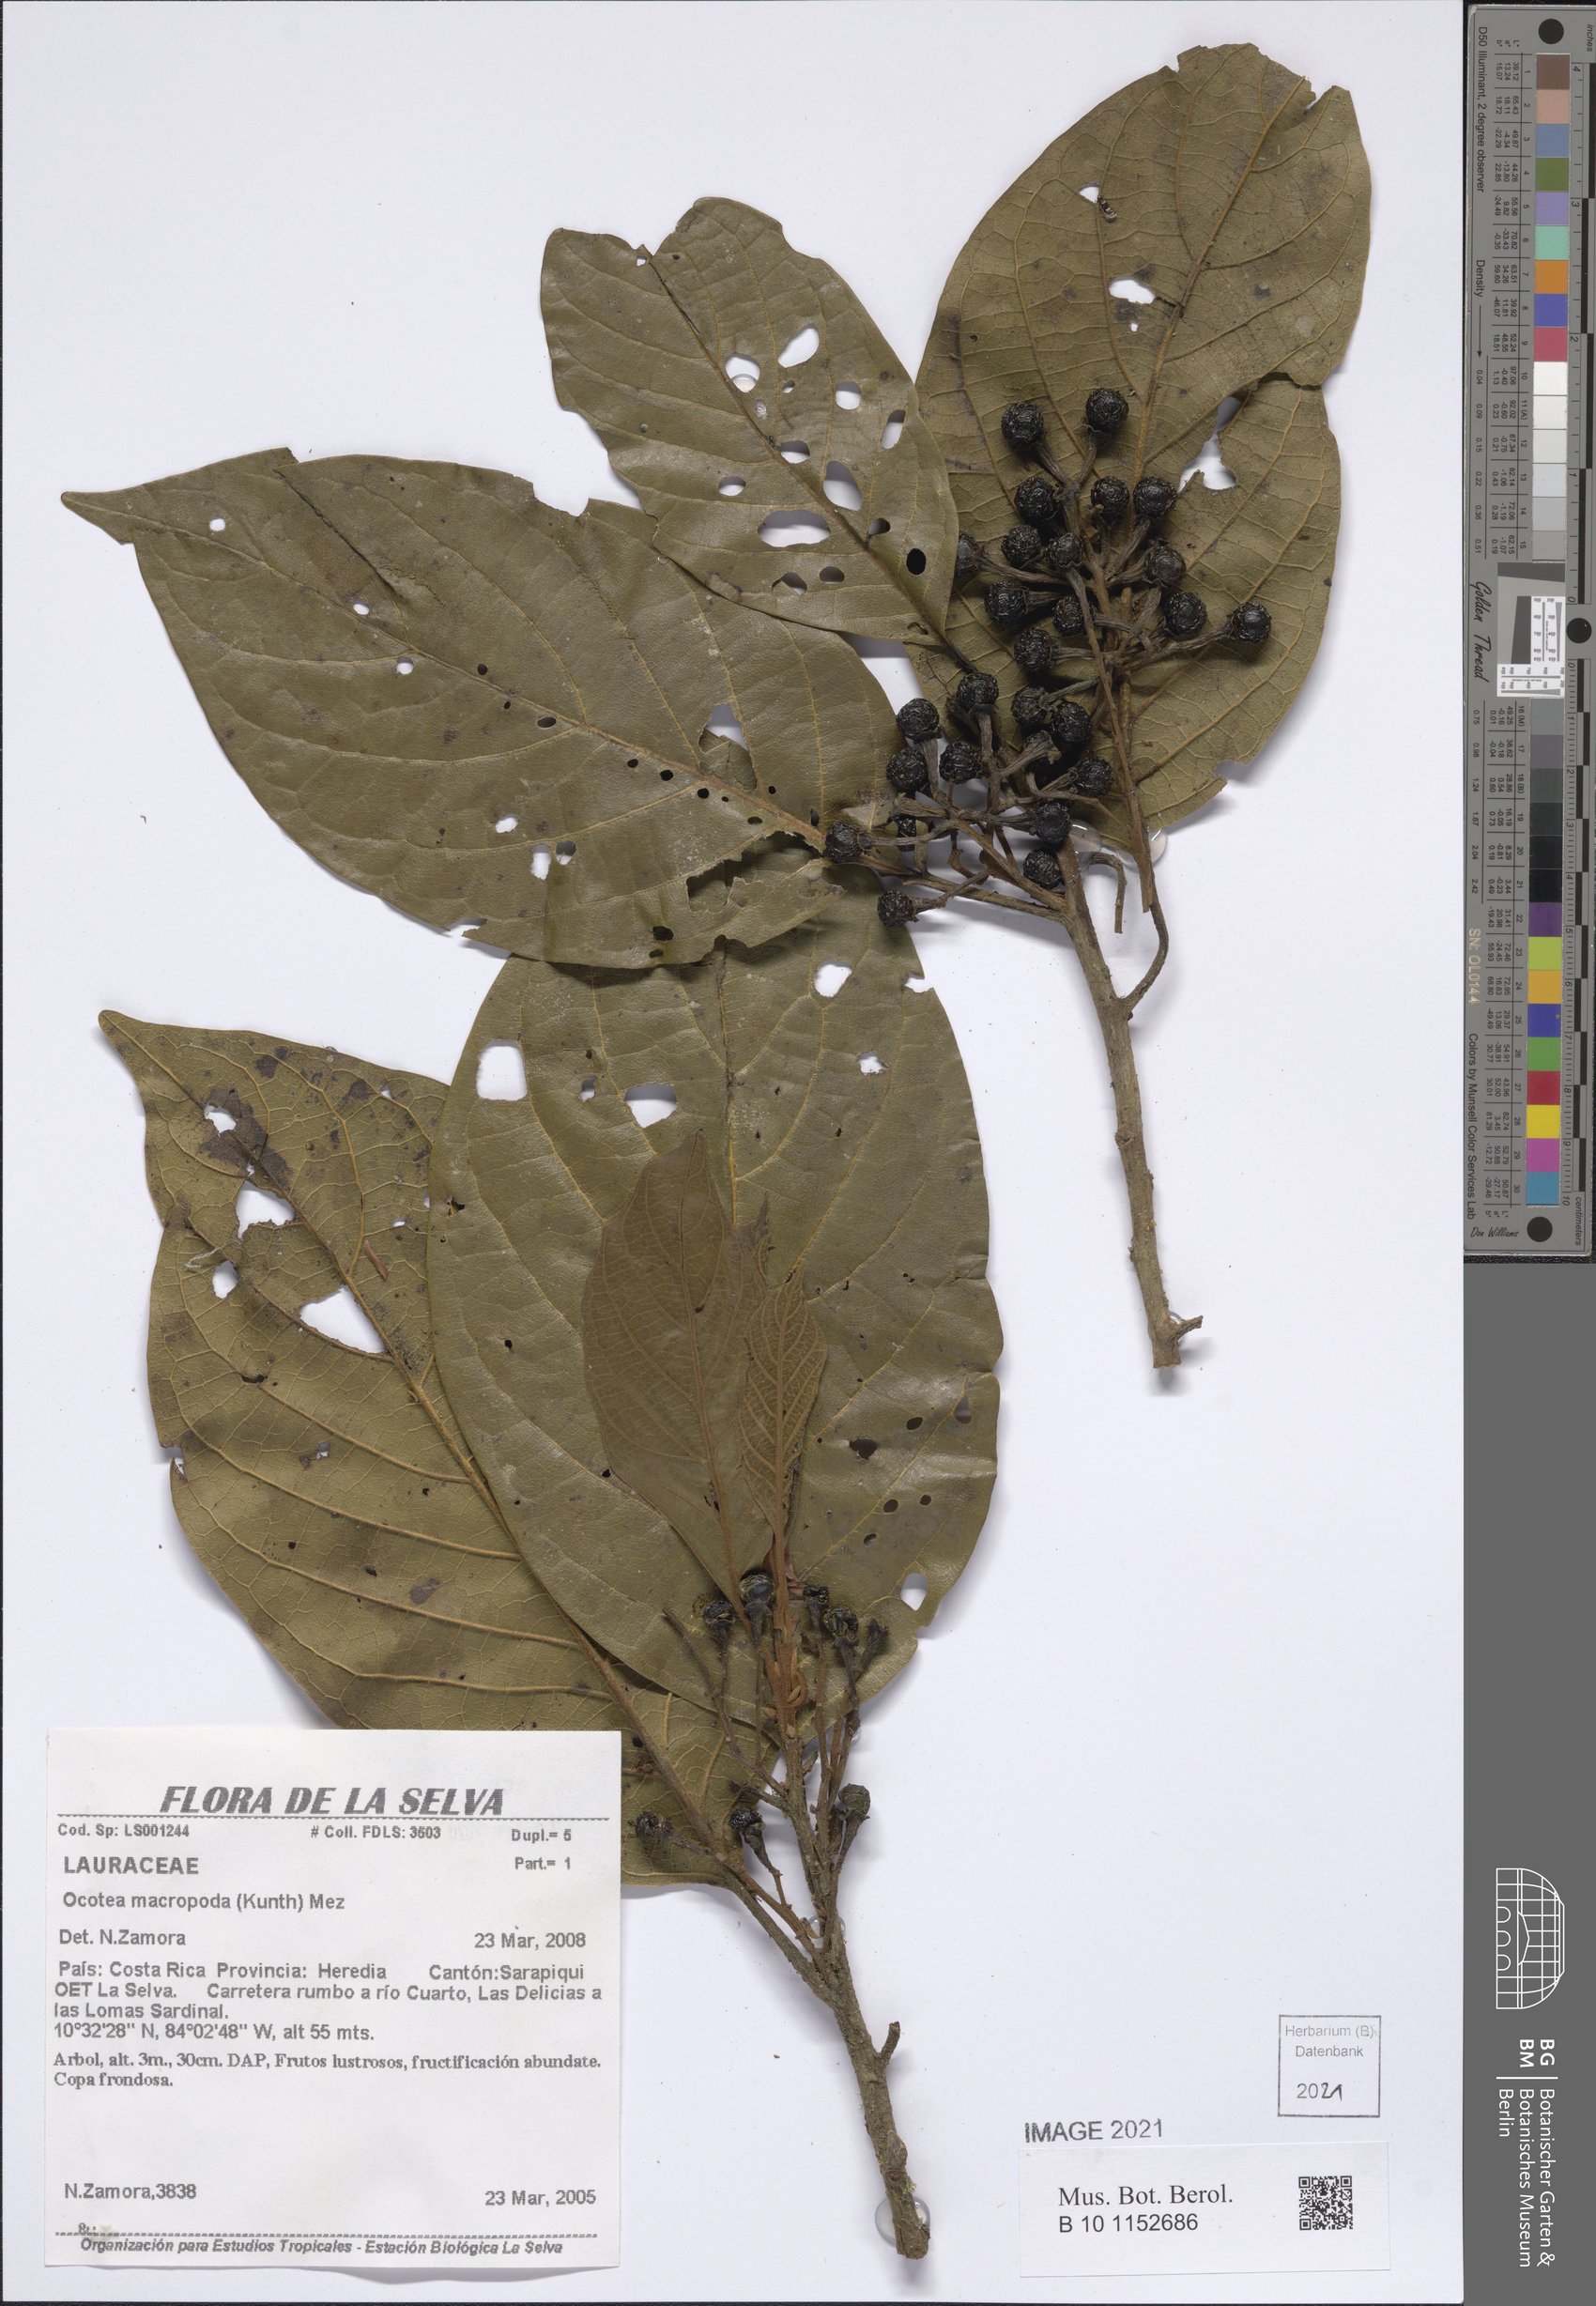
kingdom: Plantae
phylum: Tracheophyta
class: Magnoliopsida
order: Laurales
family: Lauraceae
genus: Ocotea
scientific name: Ocotea macropoda
